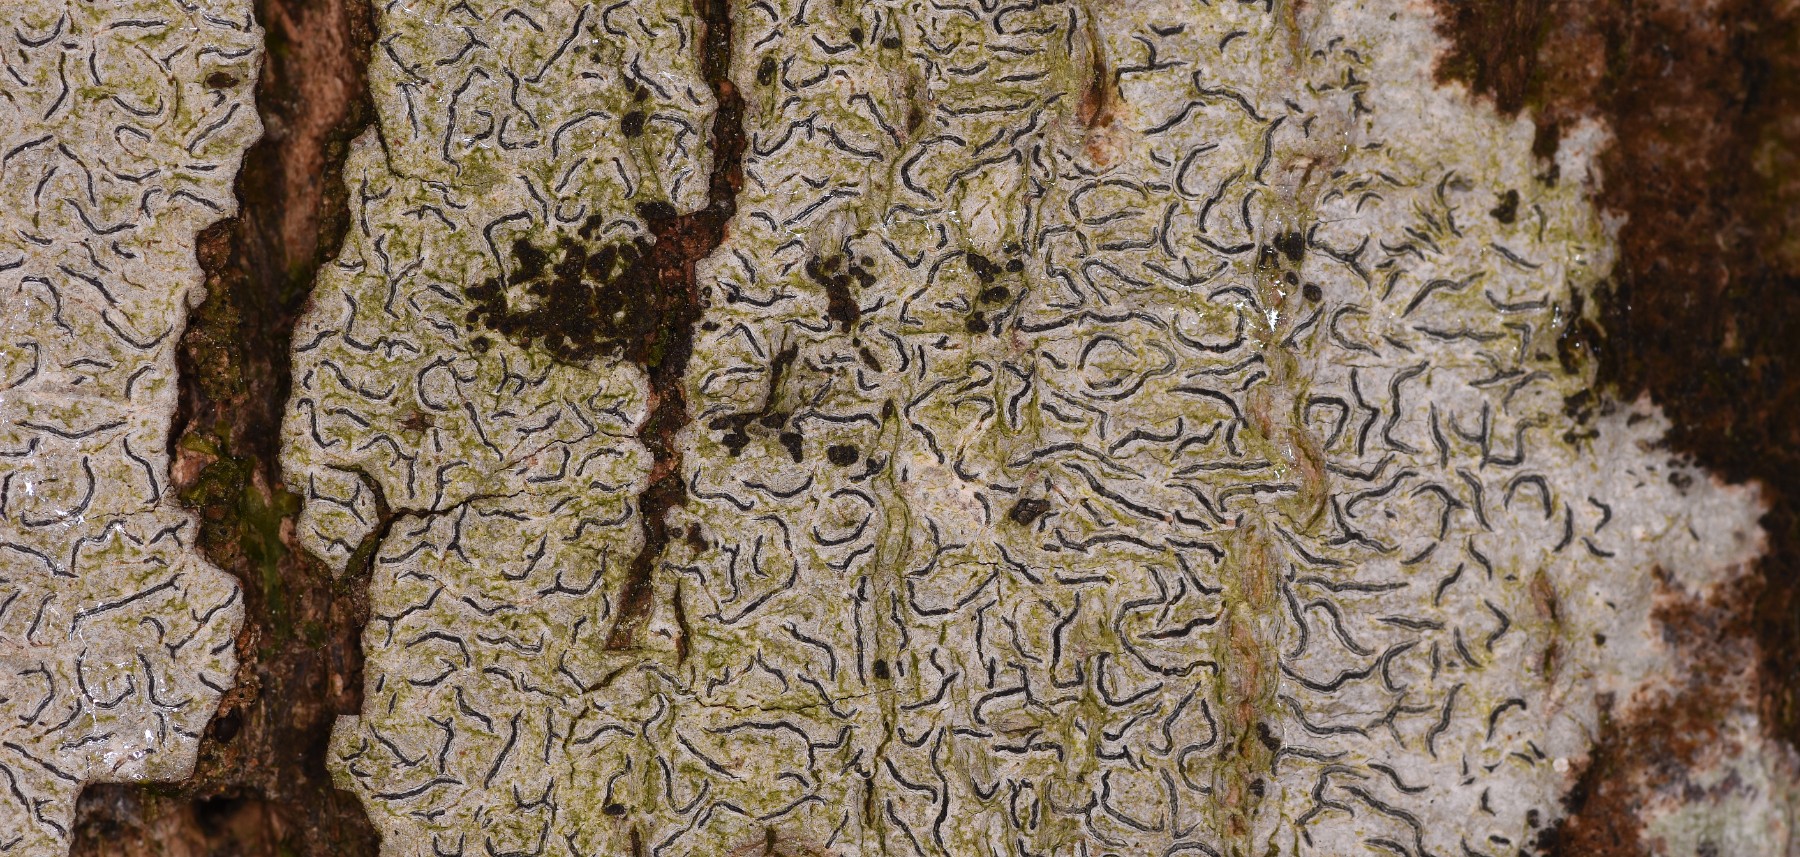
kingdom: Fungi
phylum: Ascomycota
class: Lecanoromycetes
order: Ostropales
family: Graphidaceae
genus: Graphis
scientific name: Graphis scripta
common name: almindelig skriftlav
